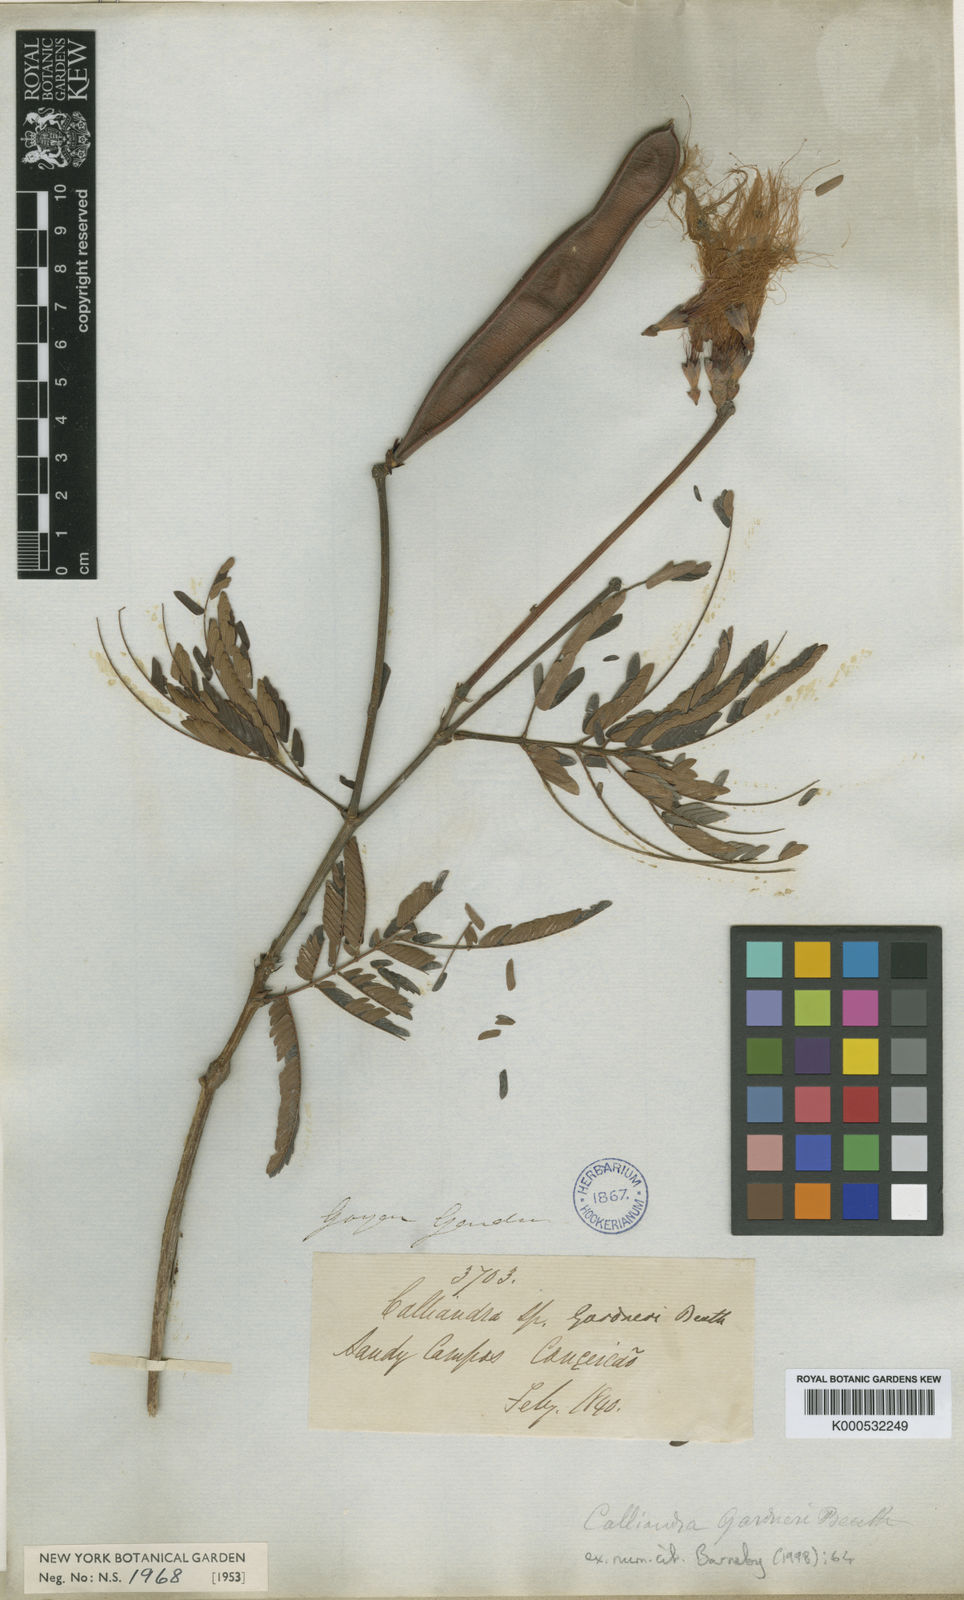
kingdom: Plantae
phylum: Tracheophyta
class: Magnoliopsida
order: Fabales
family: Fabaceae
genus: Calliandra
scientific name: Calliandra gardneri
